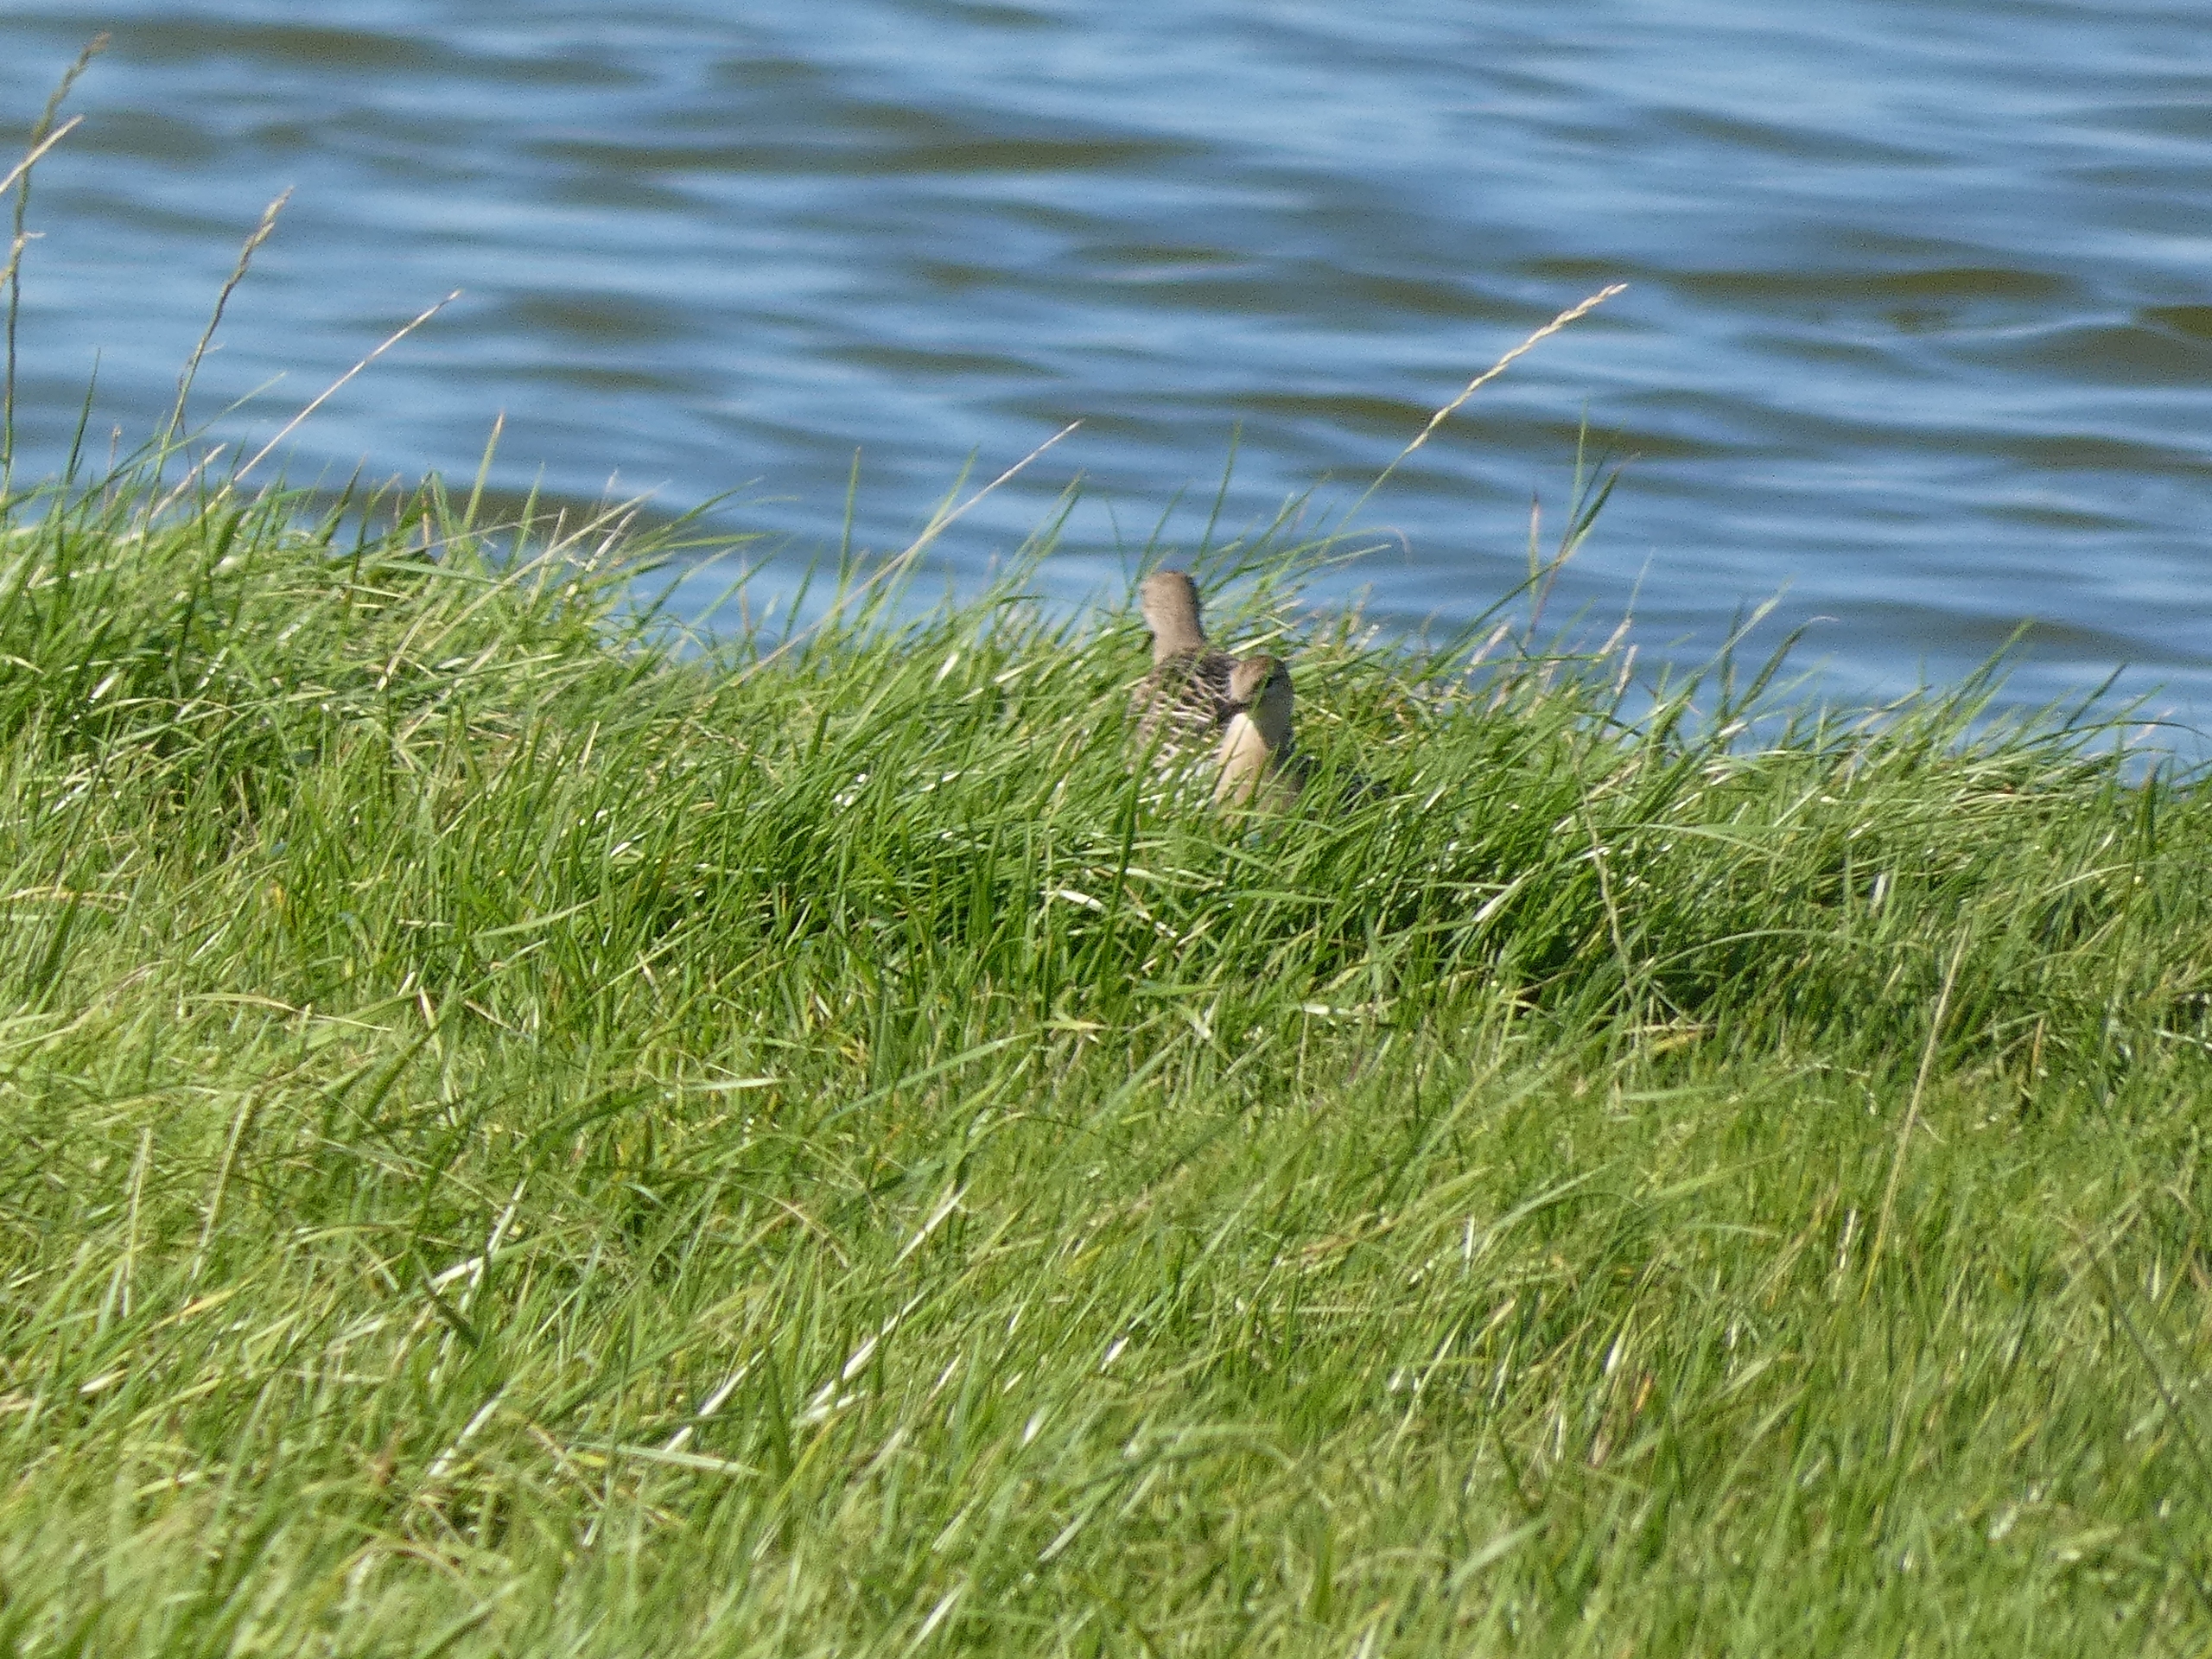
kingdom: Animalia
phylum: Chordata
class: Aves
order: Charadriiformes
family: Scolopacidae
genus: Calidris
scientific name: Calidris pugnax
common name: Brushane
